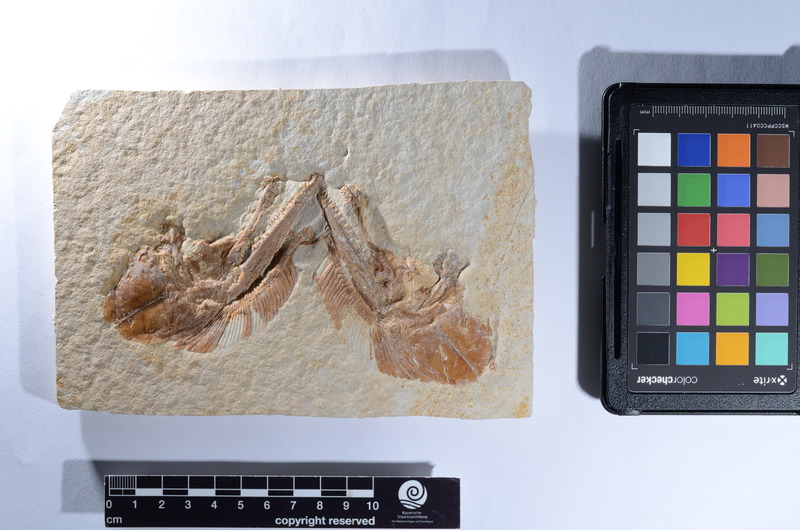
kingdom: Animalia
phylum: Chordata
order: Amiiformes
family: Caturidae
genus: Caturus
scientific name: Caturus
